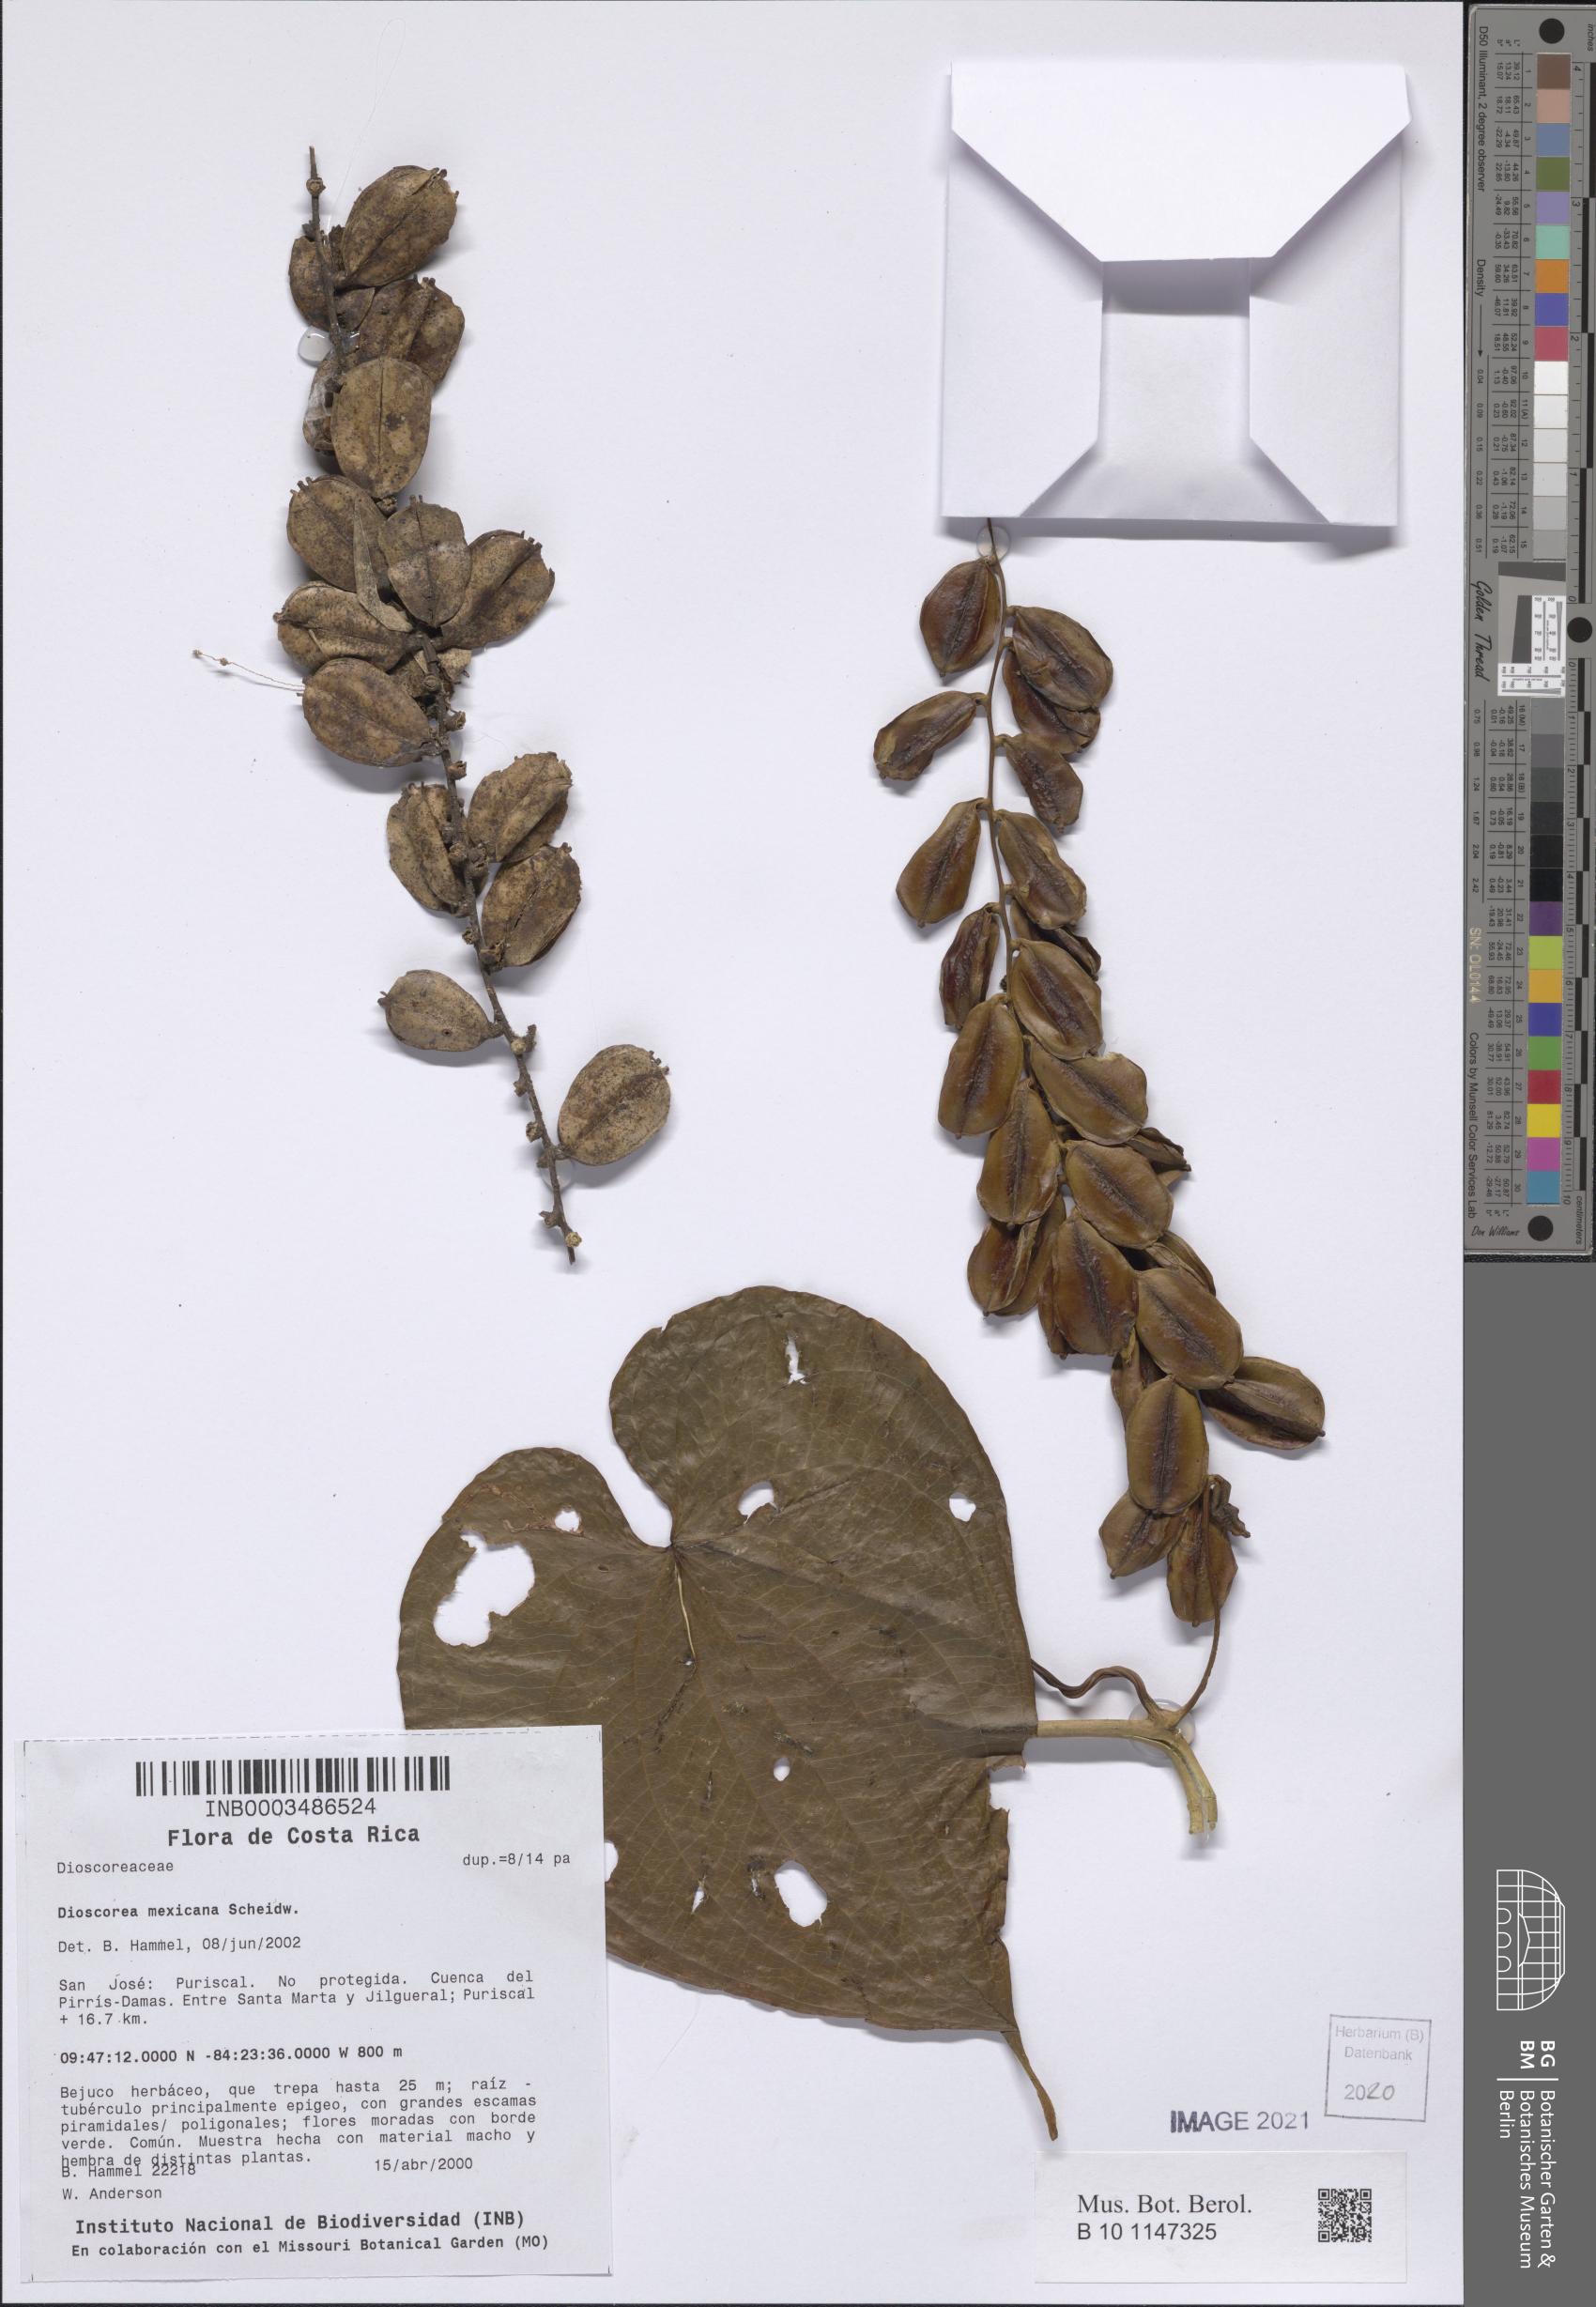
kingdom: Plantae
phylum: Tracheophyta
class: Liliopsida
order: Dioscoreales
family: Dioscoreaceae
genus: Dioscorea
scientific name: Dioscorea mexicana
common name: Mexican yam
